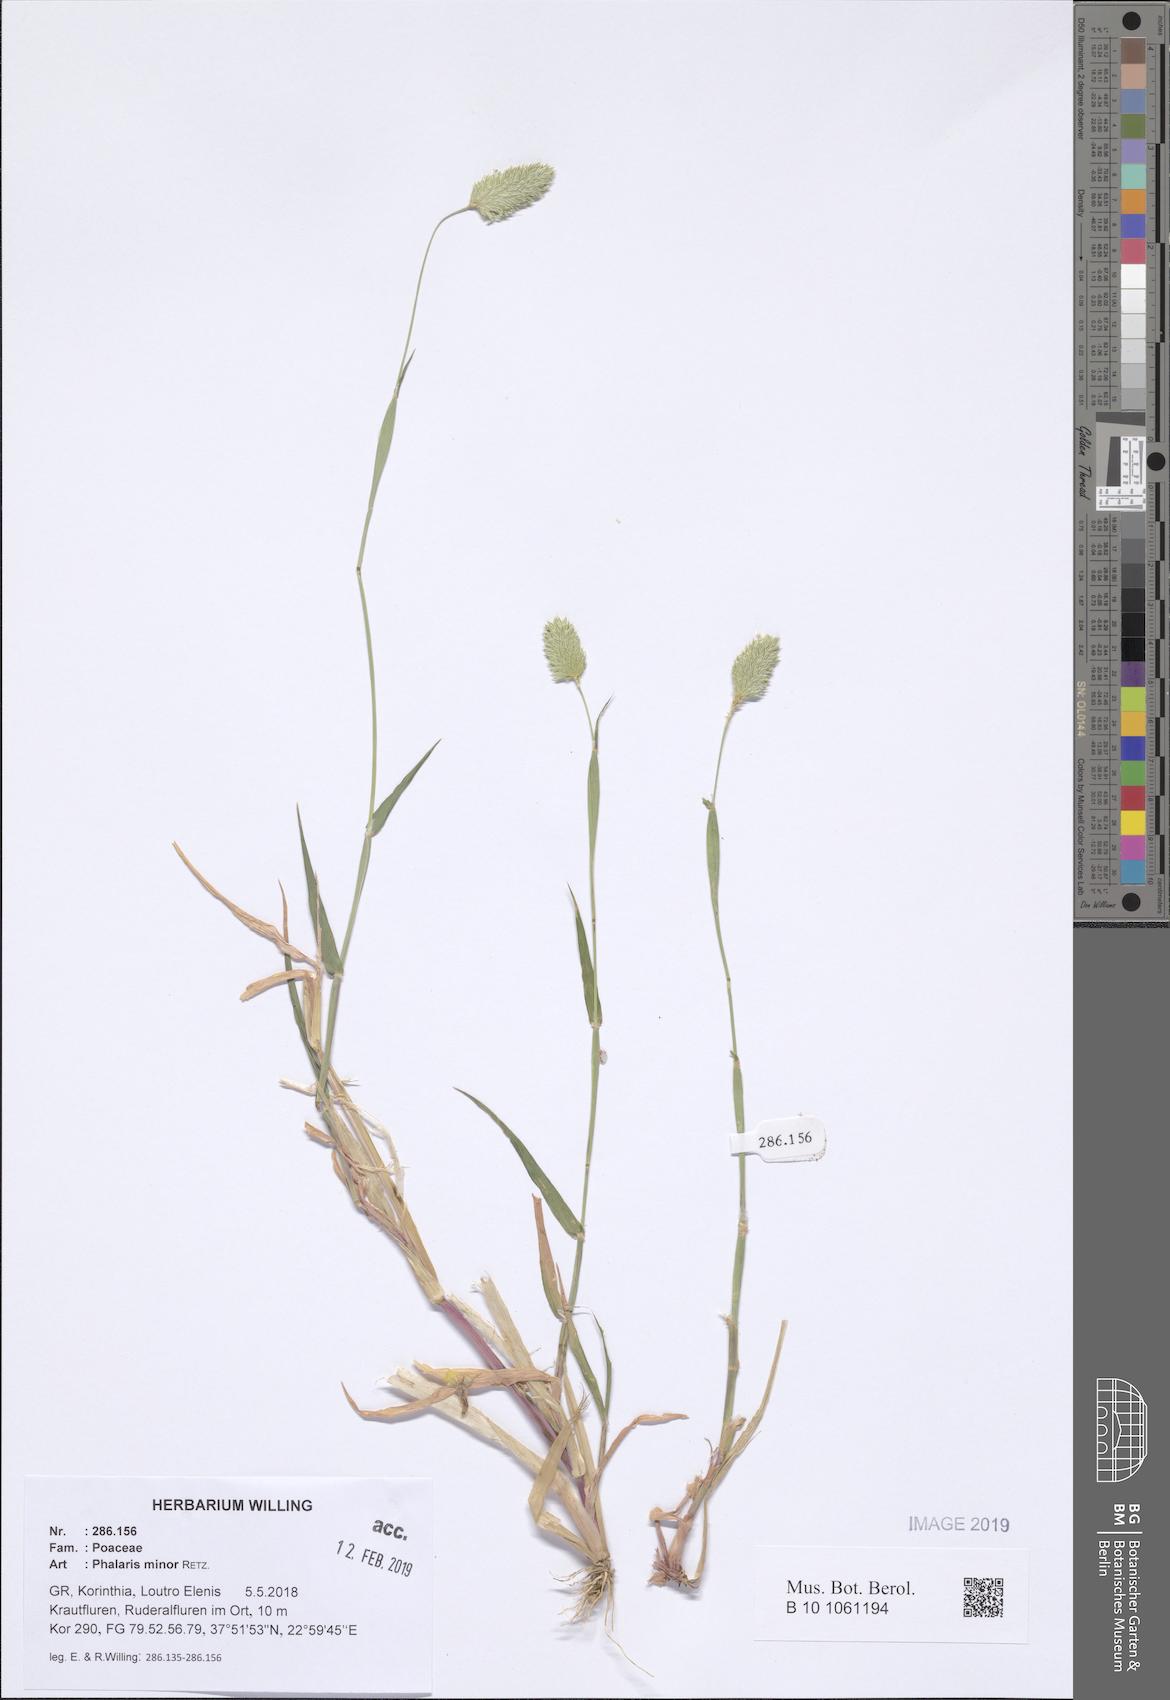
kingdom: Plantae
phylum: Tracheophyta
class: Liliopsida
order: Poales
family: Poaceae
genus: Phalaris
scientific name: Phalaris minor
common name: Littleseed canarygrass
